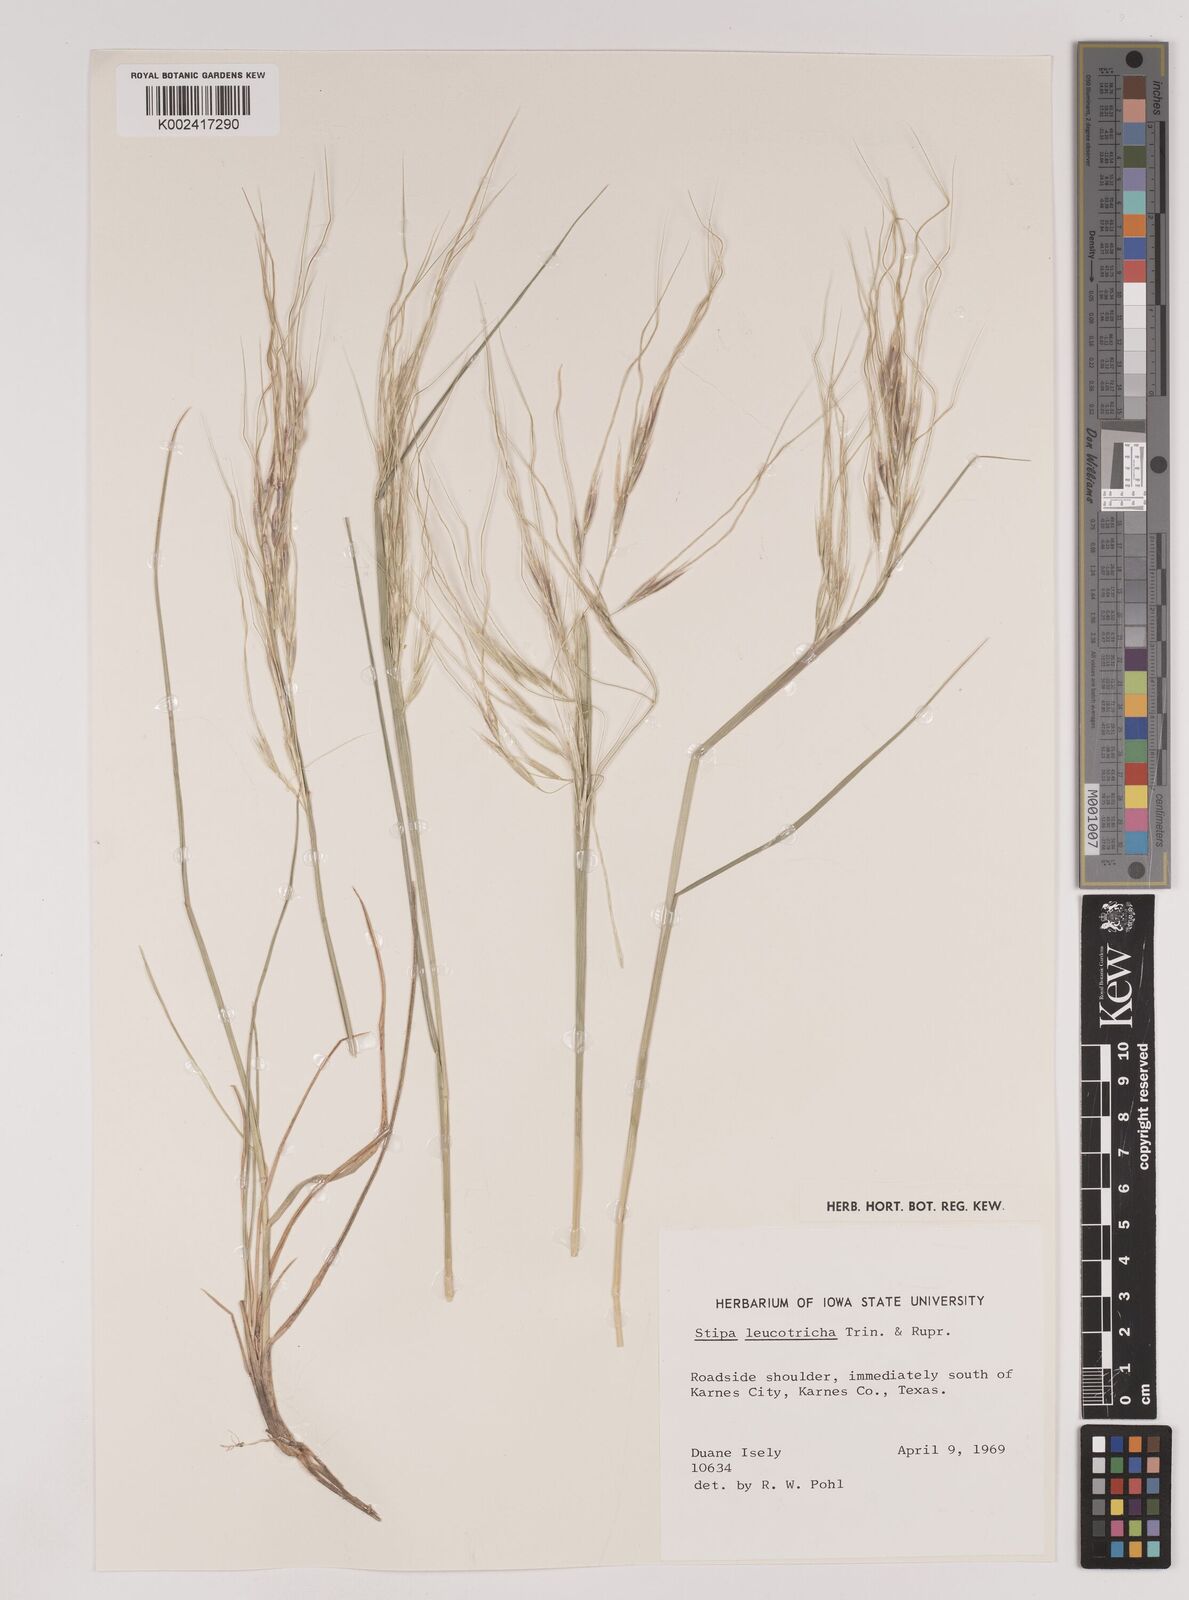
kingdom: Plantae
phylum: Tracheophyta
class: Liliopsida
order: Poales
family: Poaceae
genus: Nassella
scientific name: Nassella leucotricha
